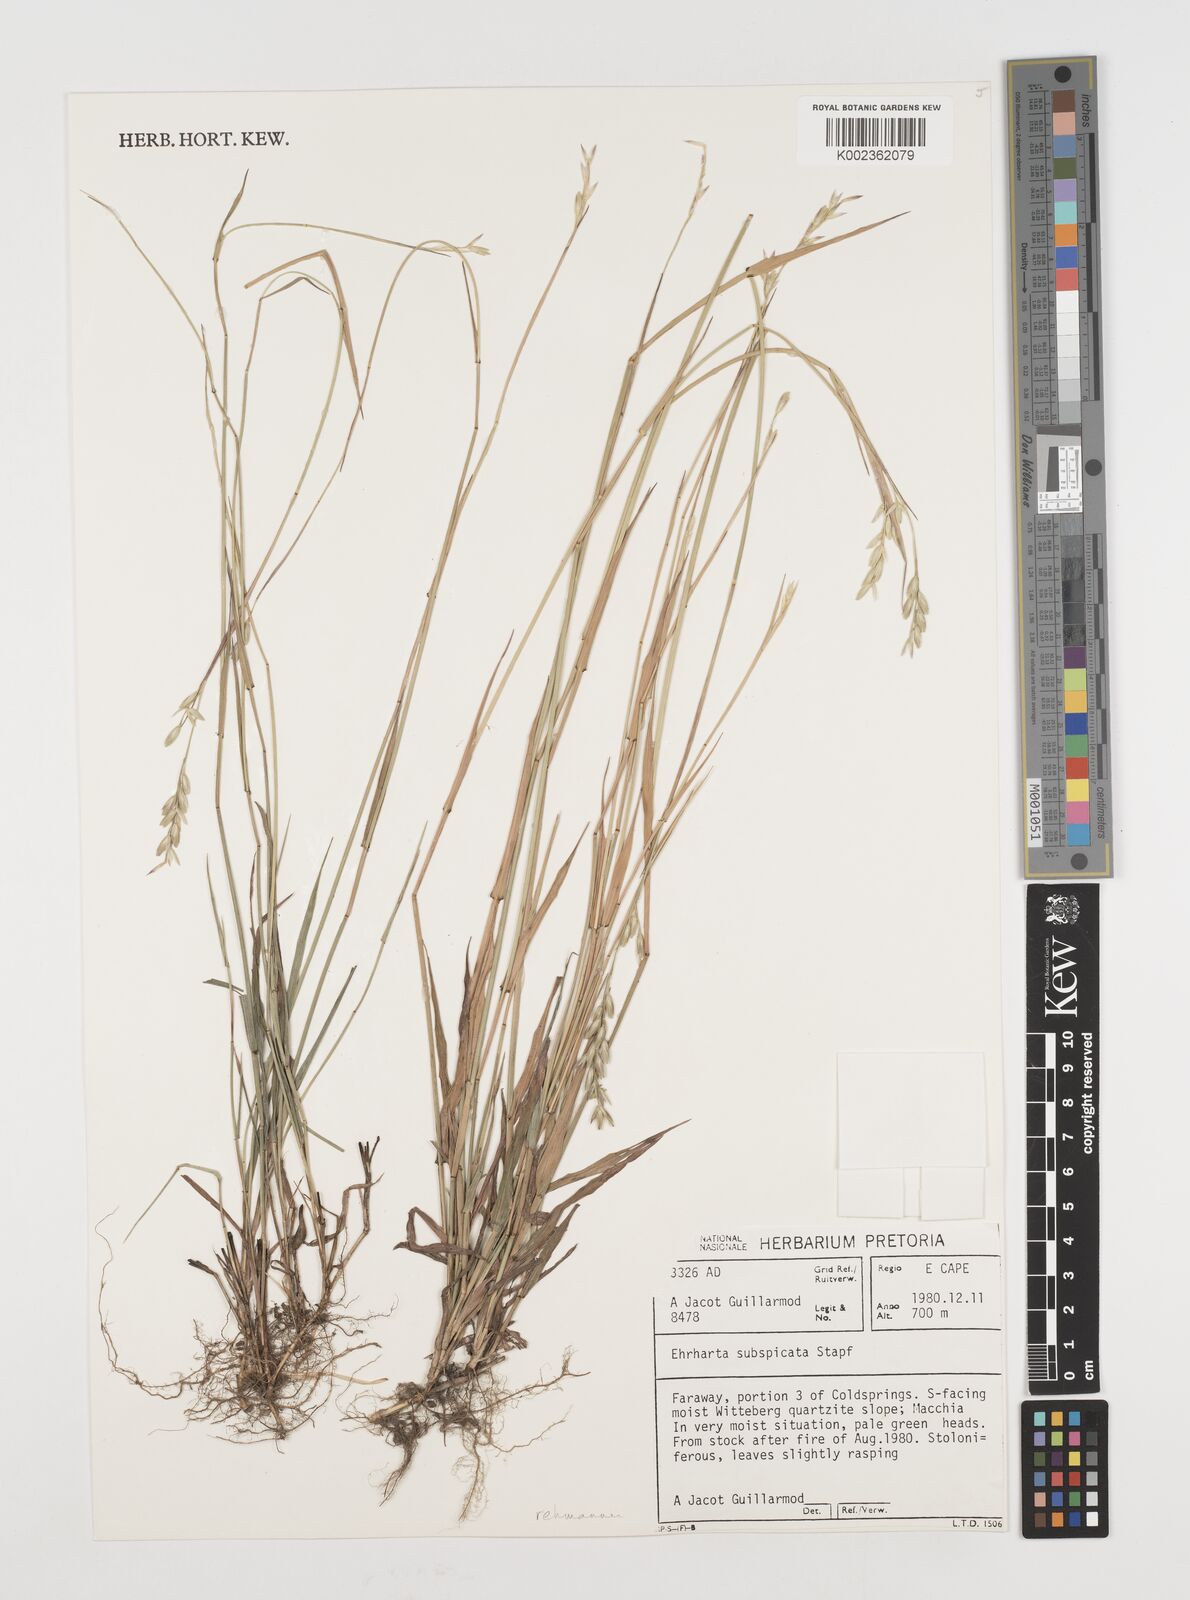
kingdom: Plantae
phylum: Tracheophyta
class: Liliopsida
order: Poales
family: Poaceae
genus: Ehrharta
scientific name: Ehrharta rehmannii
